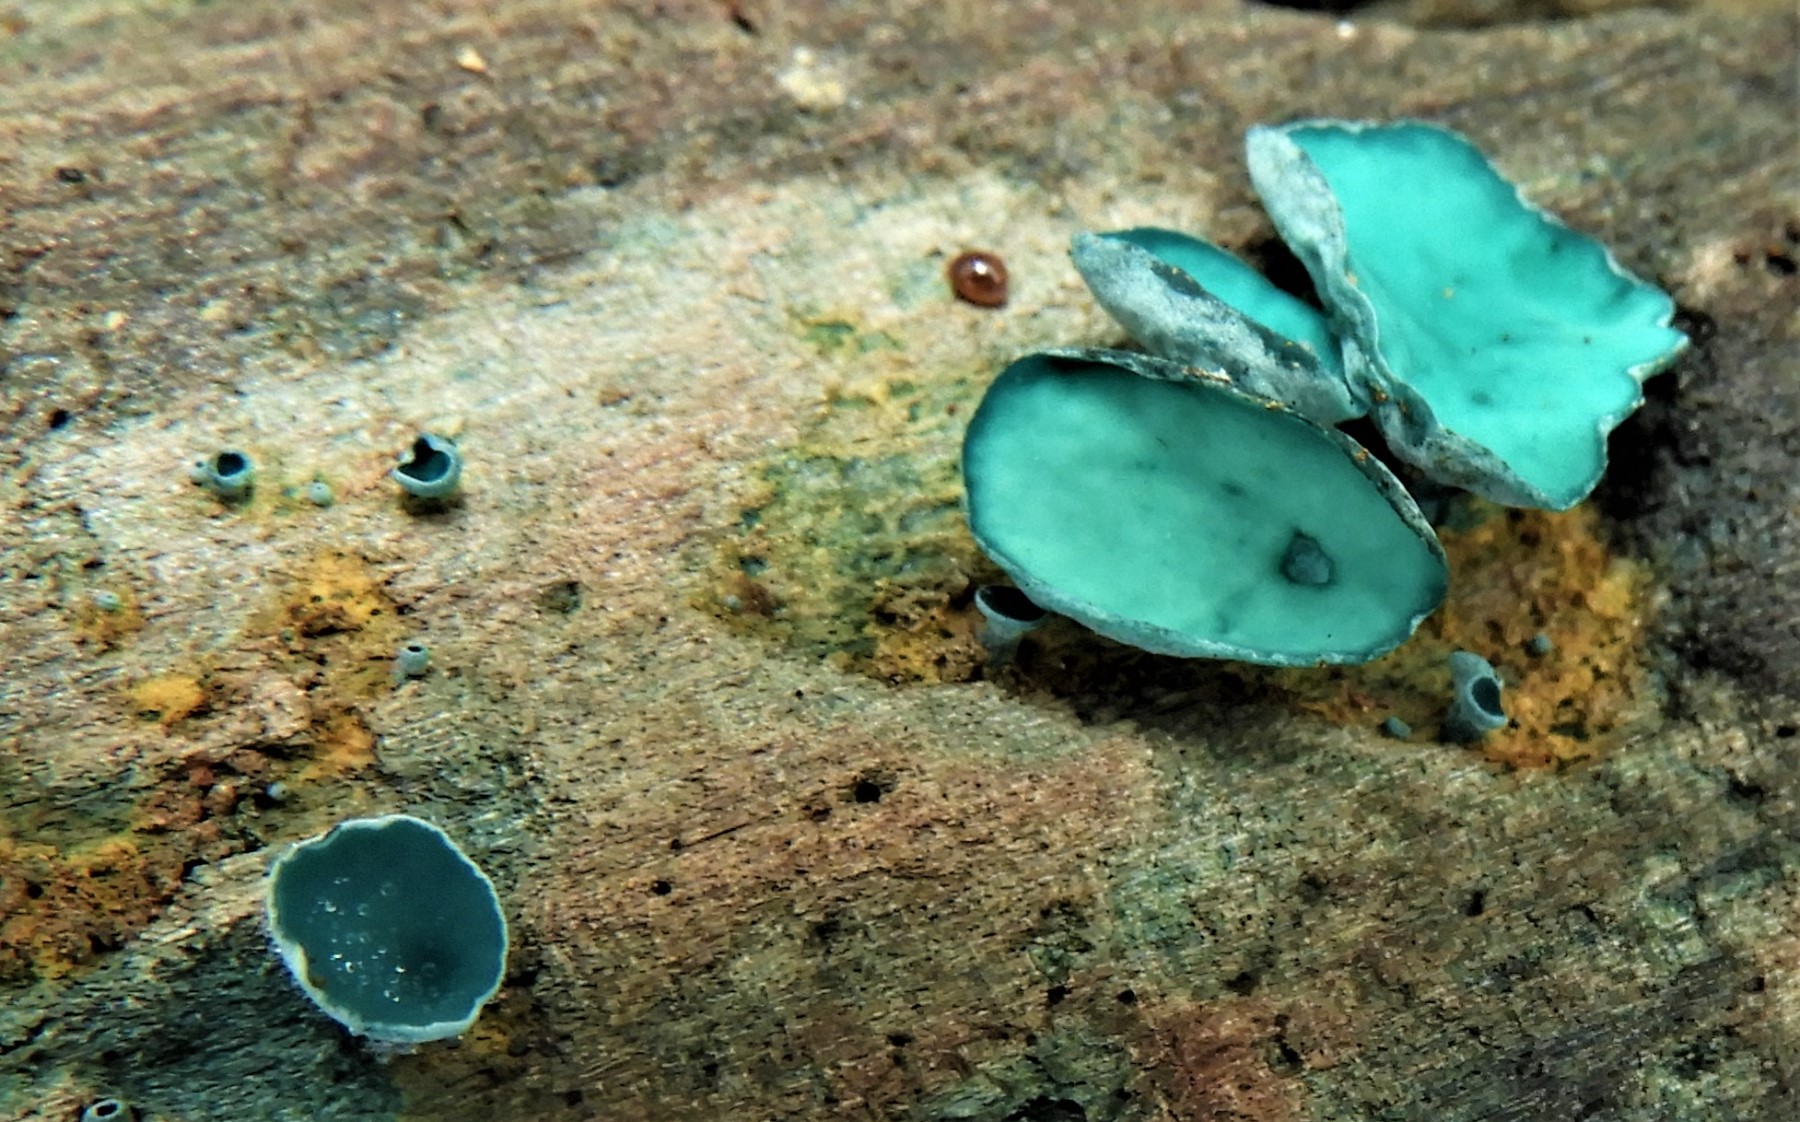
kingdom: Fungi
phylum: Ascomycota
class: Leotiomycetes
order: Helotiales
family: Chlorociboriaceae
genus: Chlorociboria
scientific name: Chlorociboria aeruginascens
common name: almindelig grønskive
